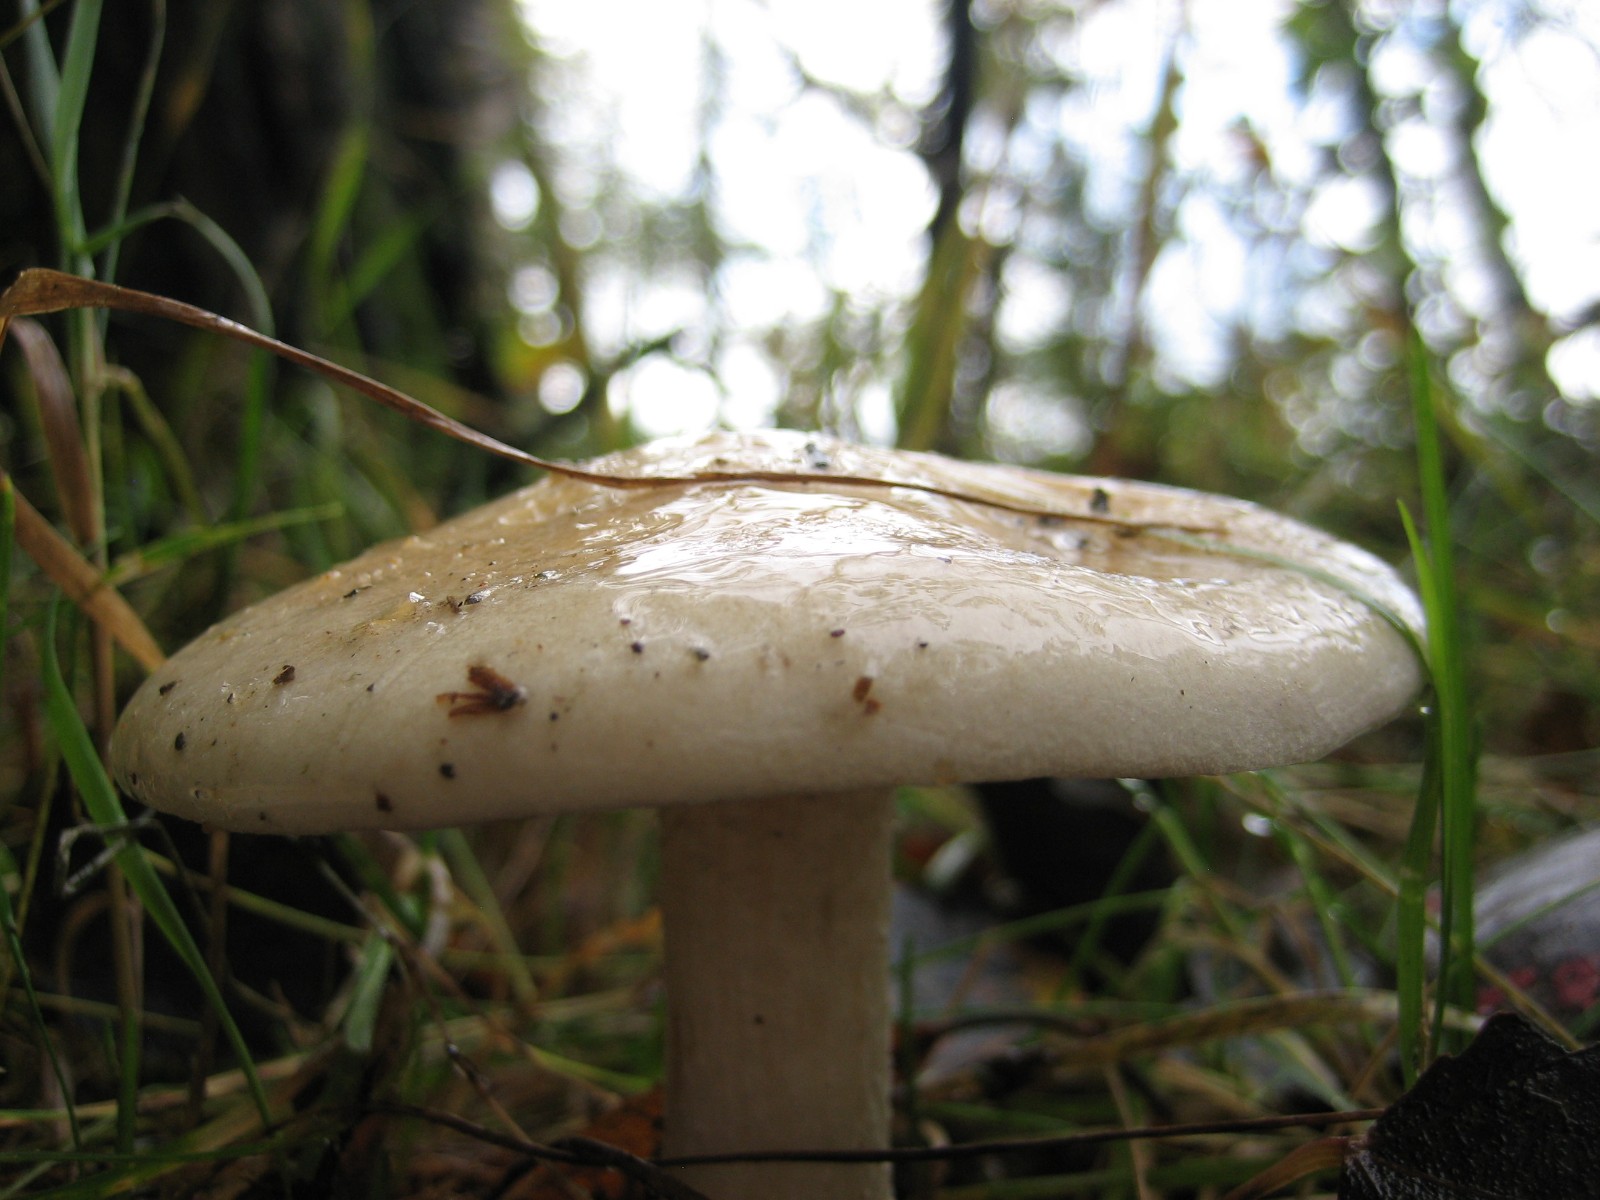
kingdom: Fungi
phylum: Basidiomycota
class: Agaricomycetes
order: Agaricales
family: Hymenogastraceae
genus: Hebeloma
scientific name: Hebeloma crustuliniforme
